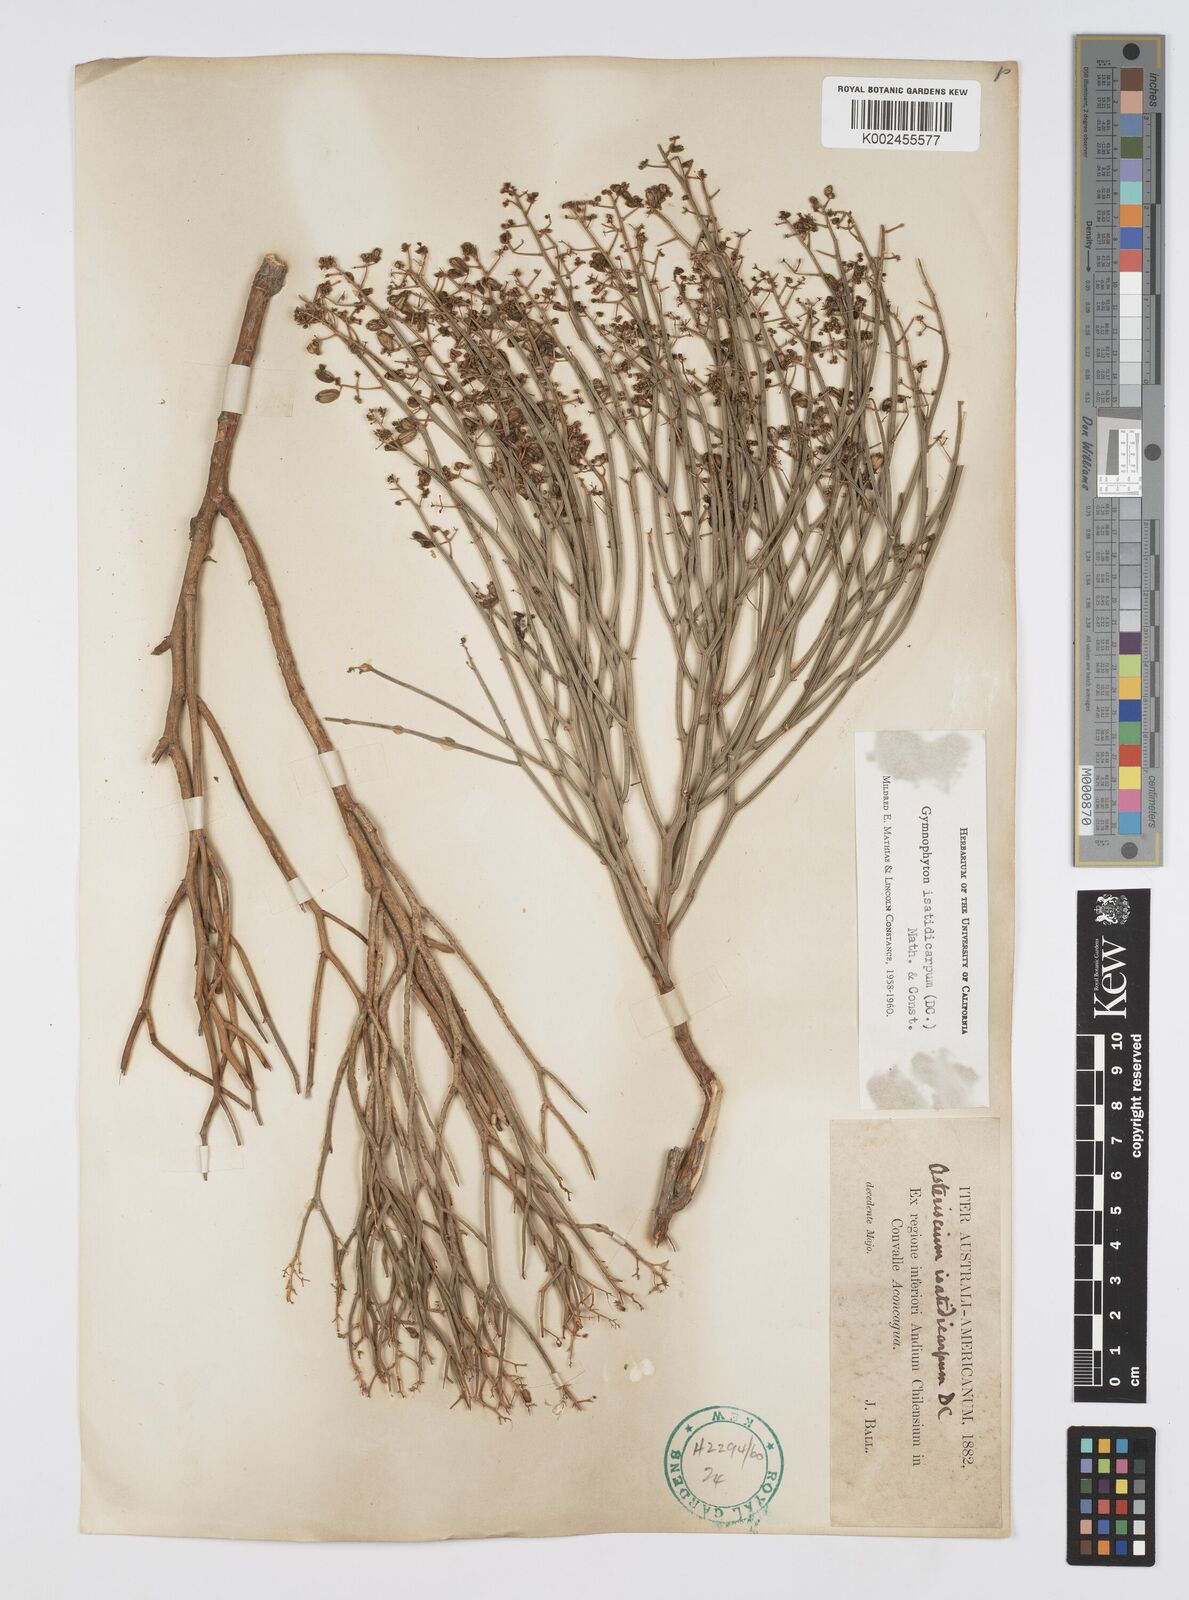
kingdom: Plantae
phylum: Tracheophyta
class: Magnoliopsida
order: Apiales
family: Apiaceae
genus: Gymnophyton
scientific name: Gymnophyton isatidicarpum
